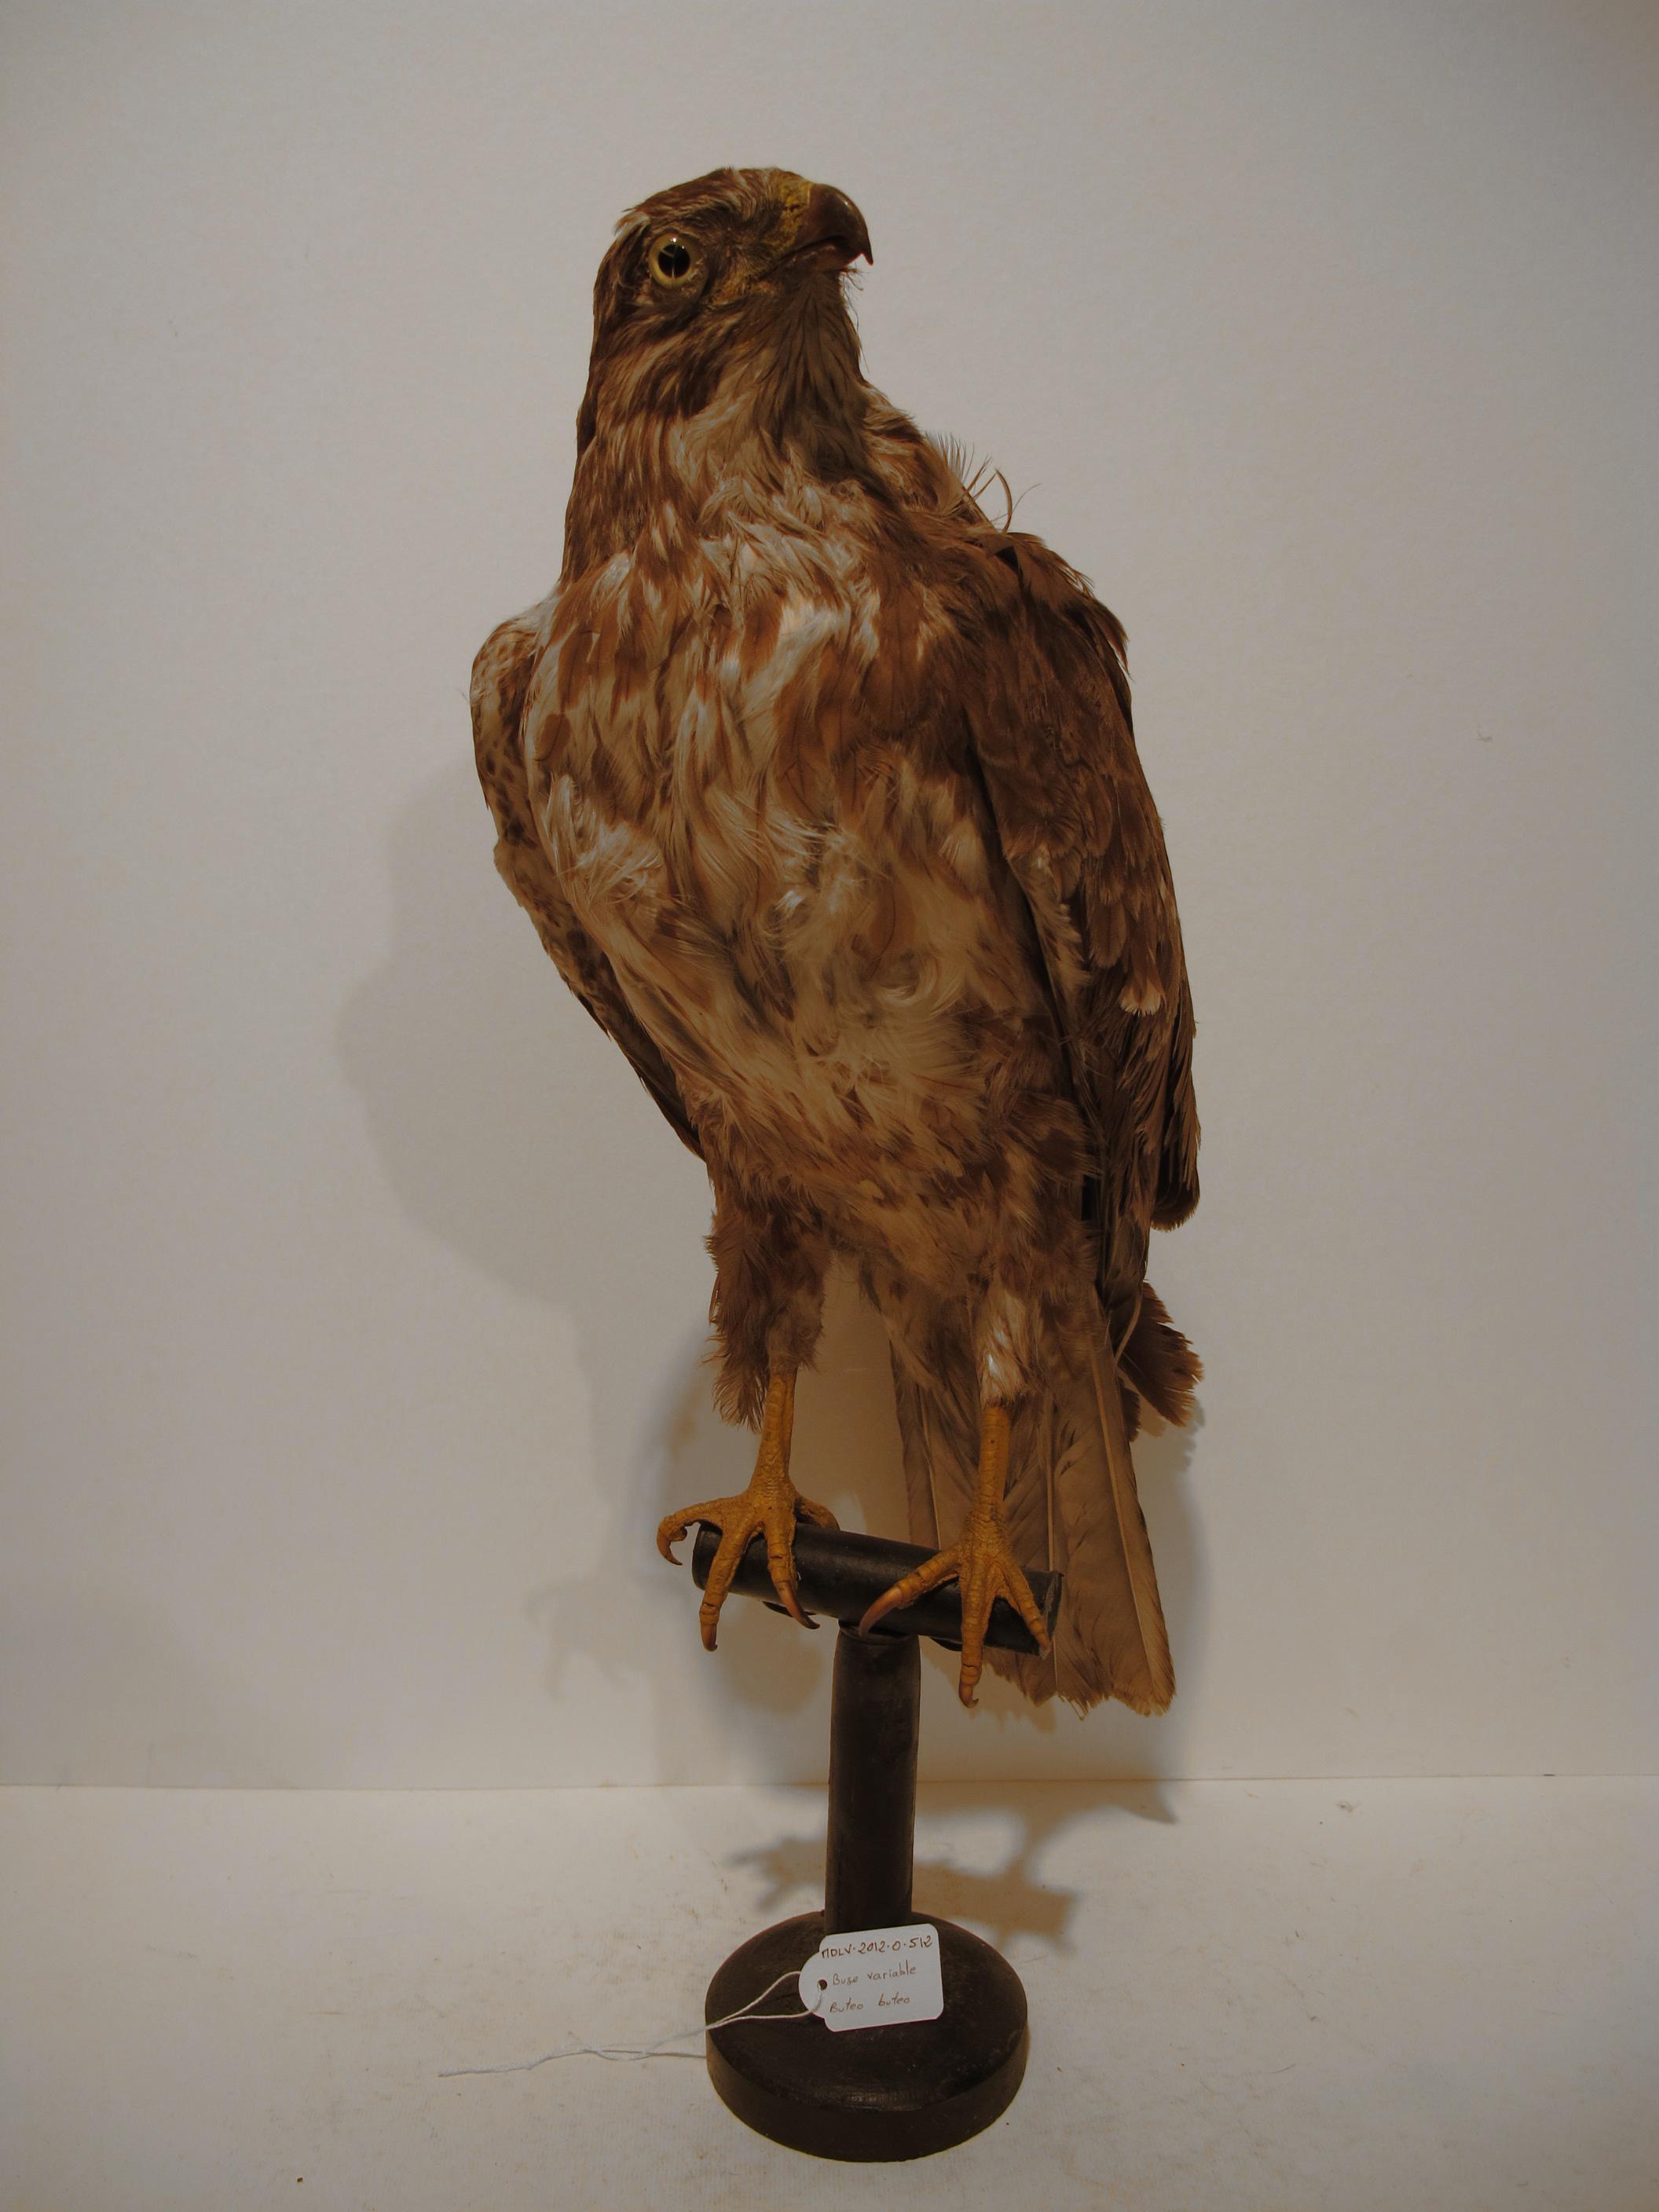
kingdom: Animalia
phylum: Chordata
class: Aves
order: Accipitriformes
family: Accipitridae
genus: Buteo
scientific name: Buteo buteo
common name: Eurasian Buzzard
